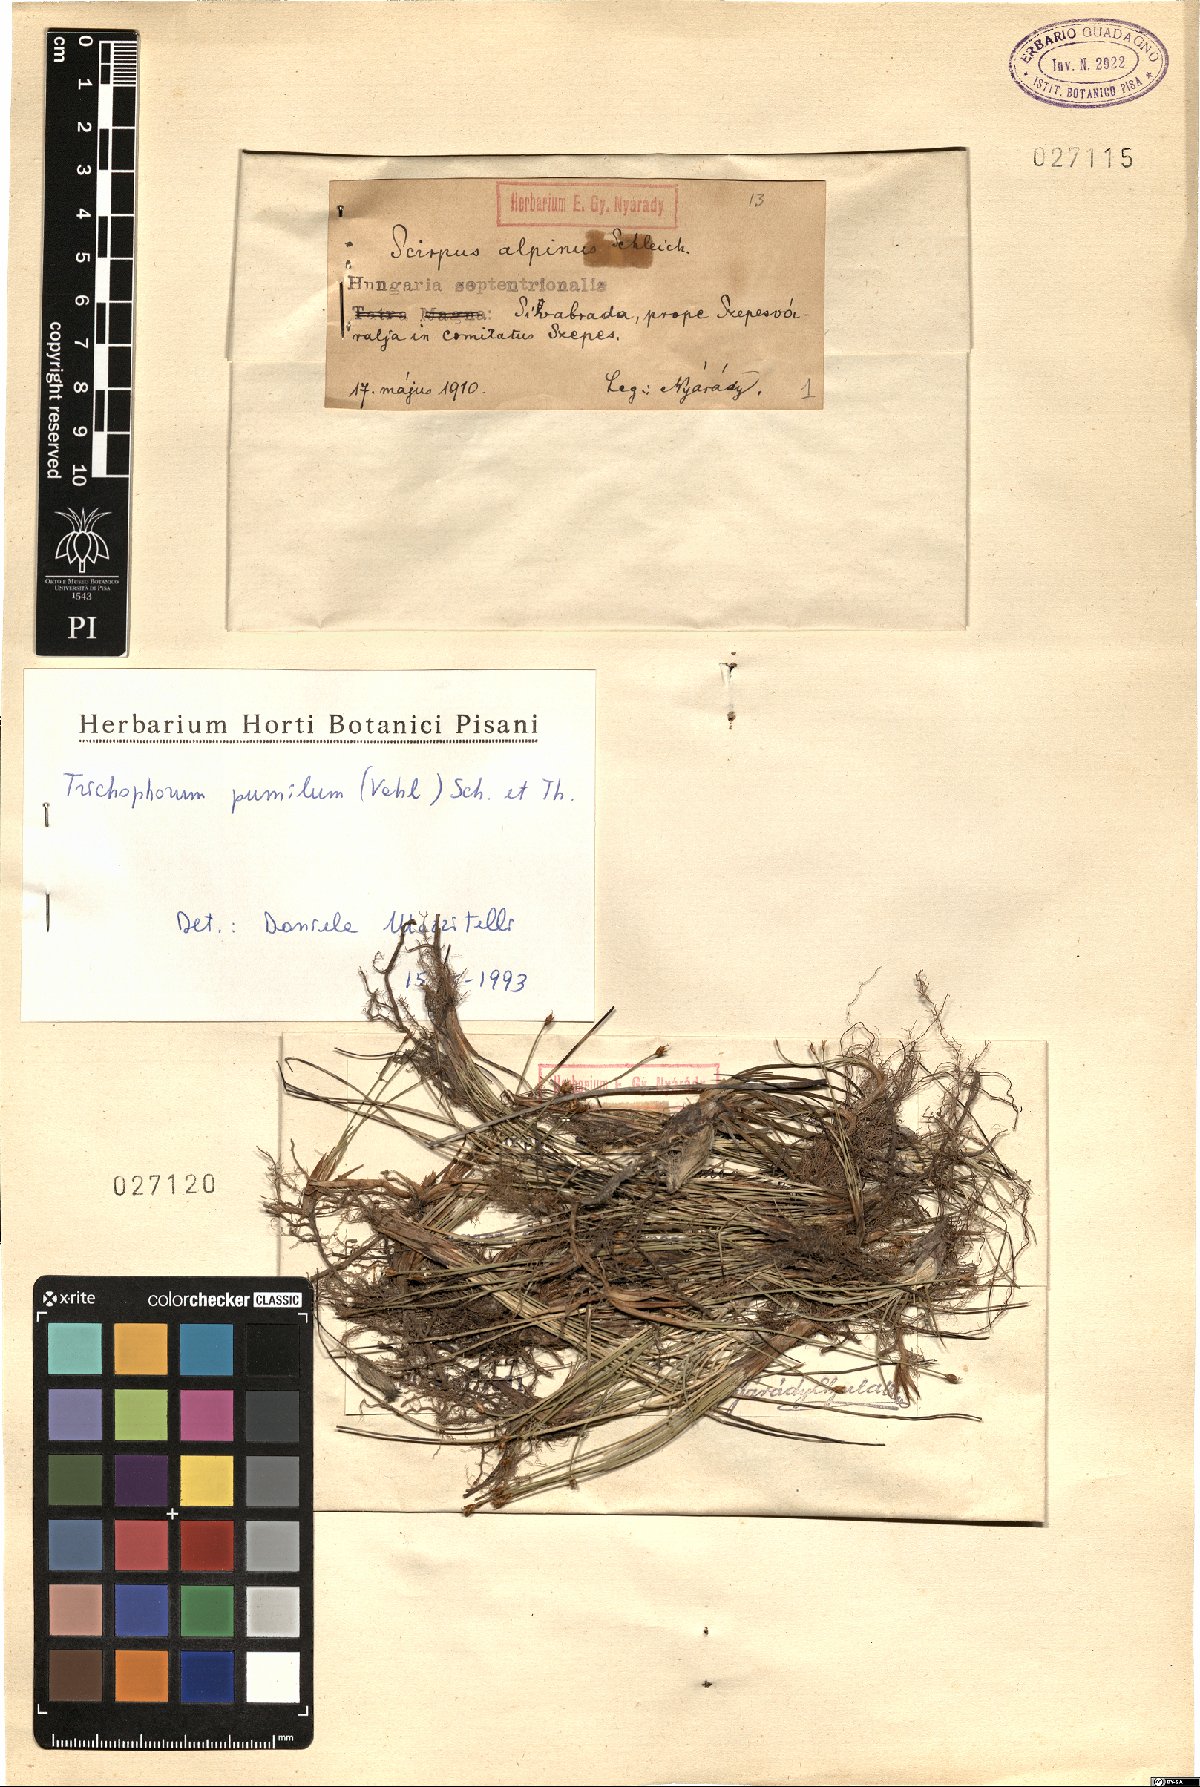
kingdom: Plantae
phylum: Tracheophyta
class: Liliopsida
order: Poales
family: Cyperaceae
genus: Trichophorum
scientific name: Trichophorum pumilum
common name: Rolland's bulrush
